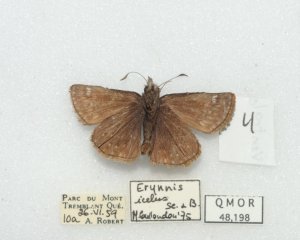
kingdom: Animalia
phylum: Arthropoda
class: Insecta
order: Lepidoptera
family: Hesperiidae
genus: Erynnis
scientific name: Erynnis icelus
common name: Dreamy Duskywing
